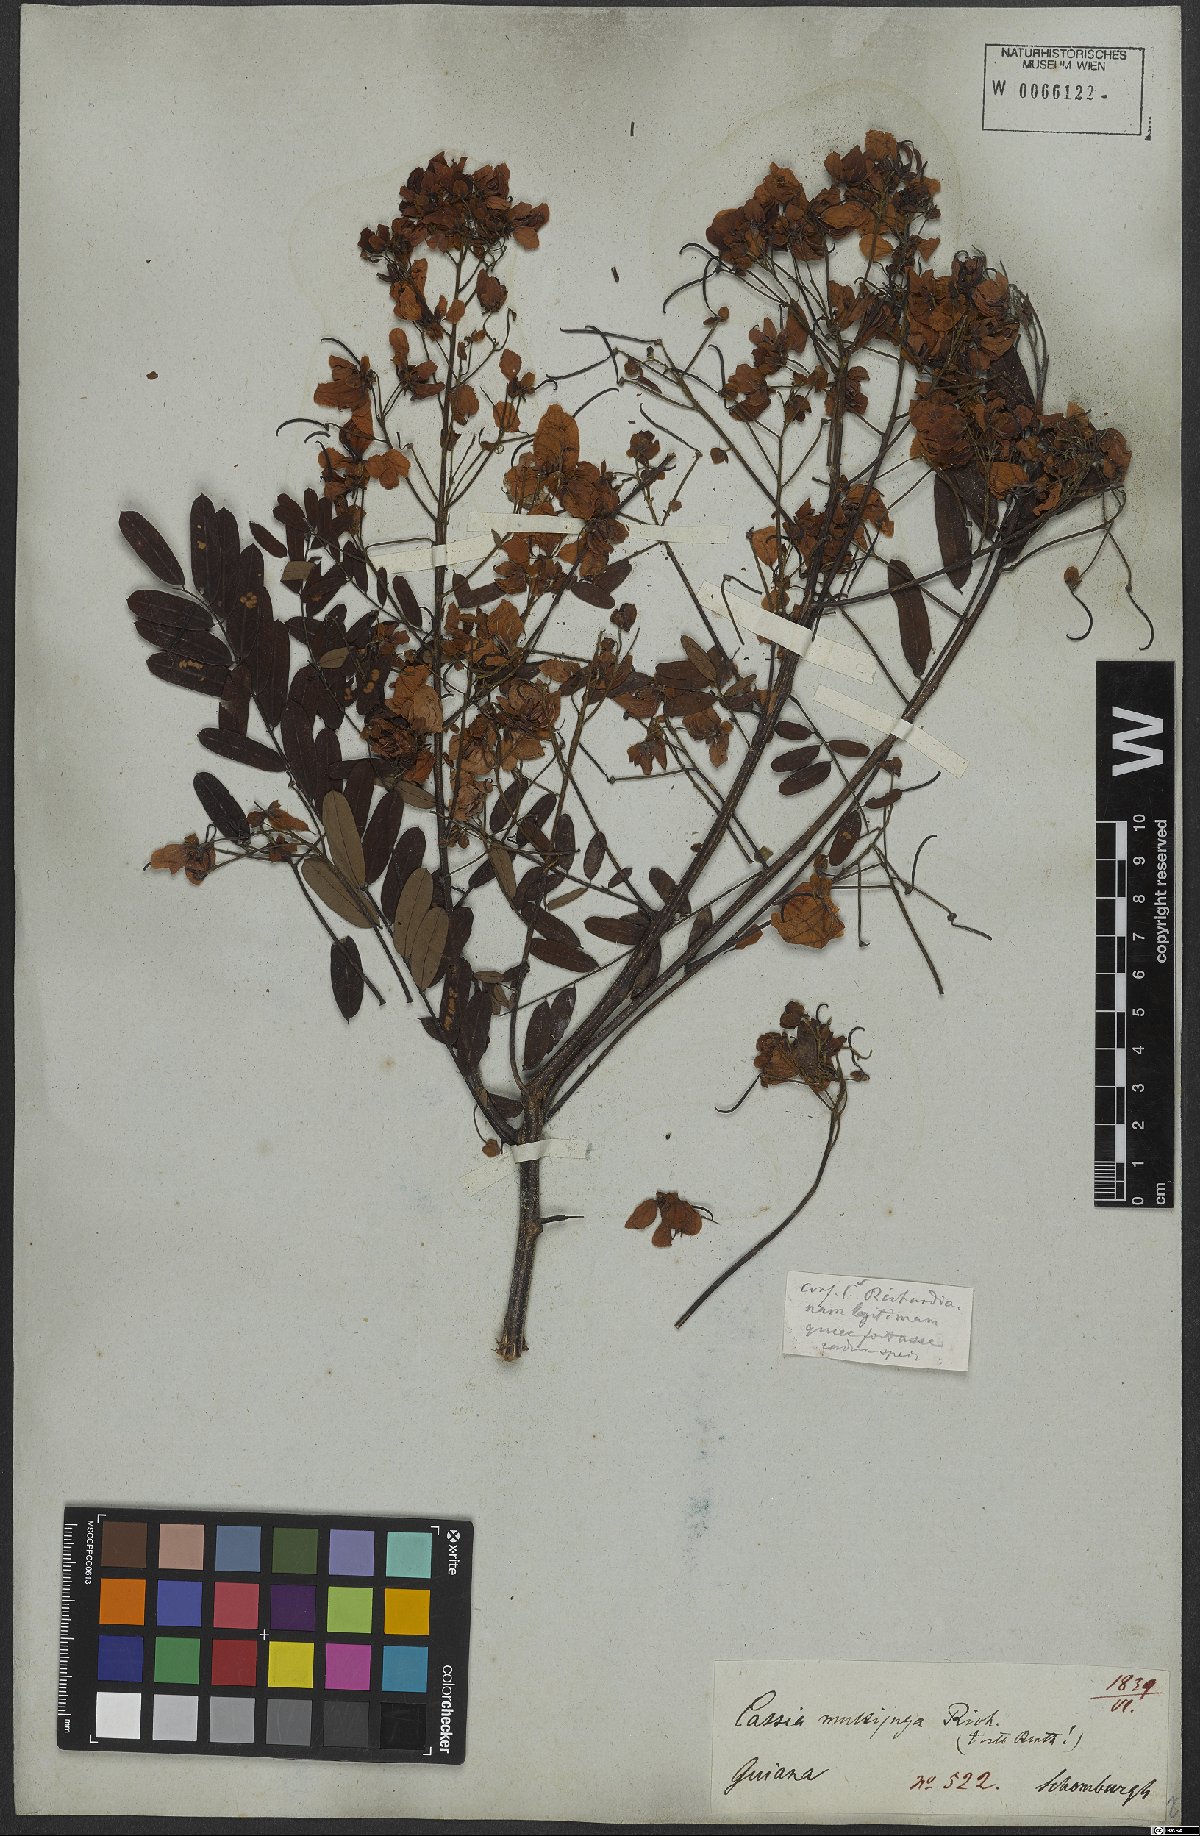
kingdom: Plantae
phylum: Tracheophyta
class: Magnoliopsida
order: Fabales
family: Fabaceae
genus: Senna
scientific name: Senna multijuga
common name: False sicklepod
